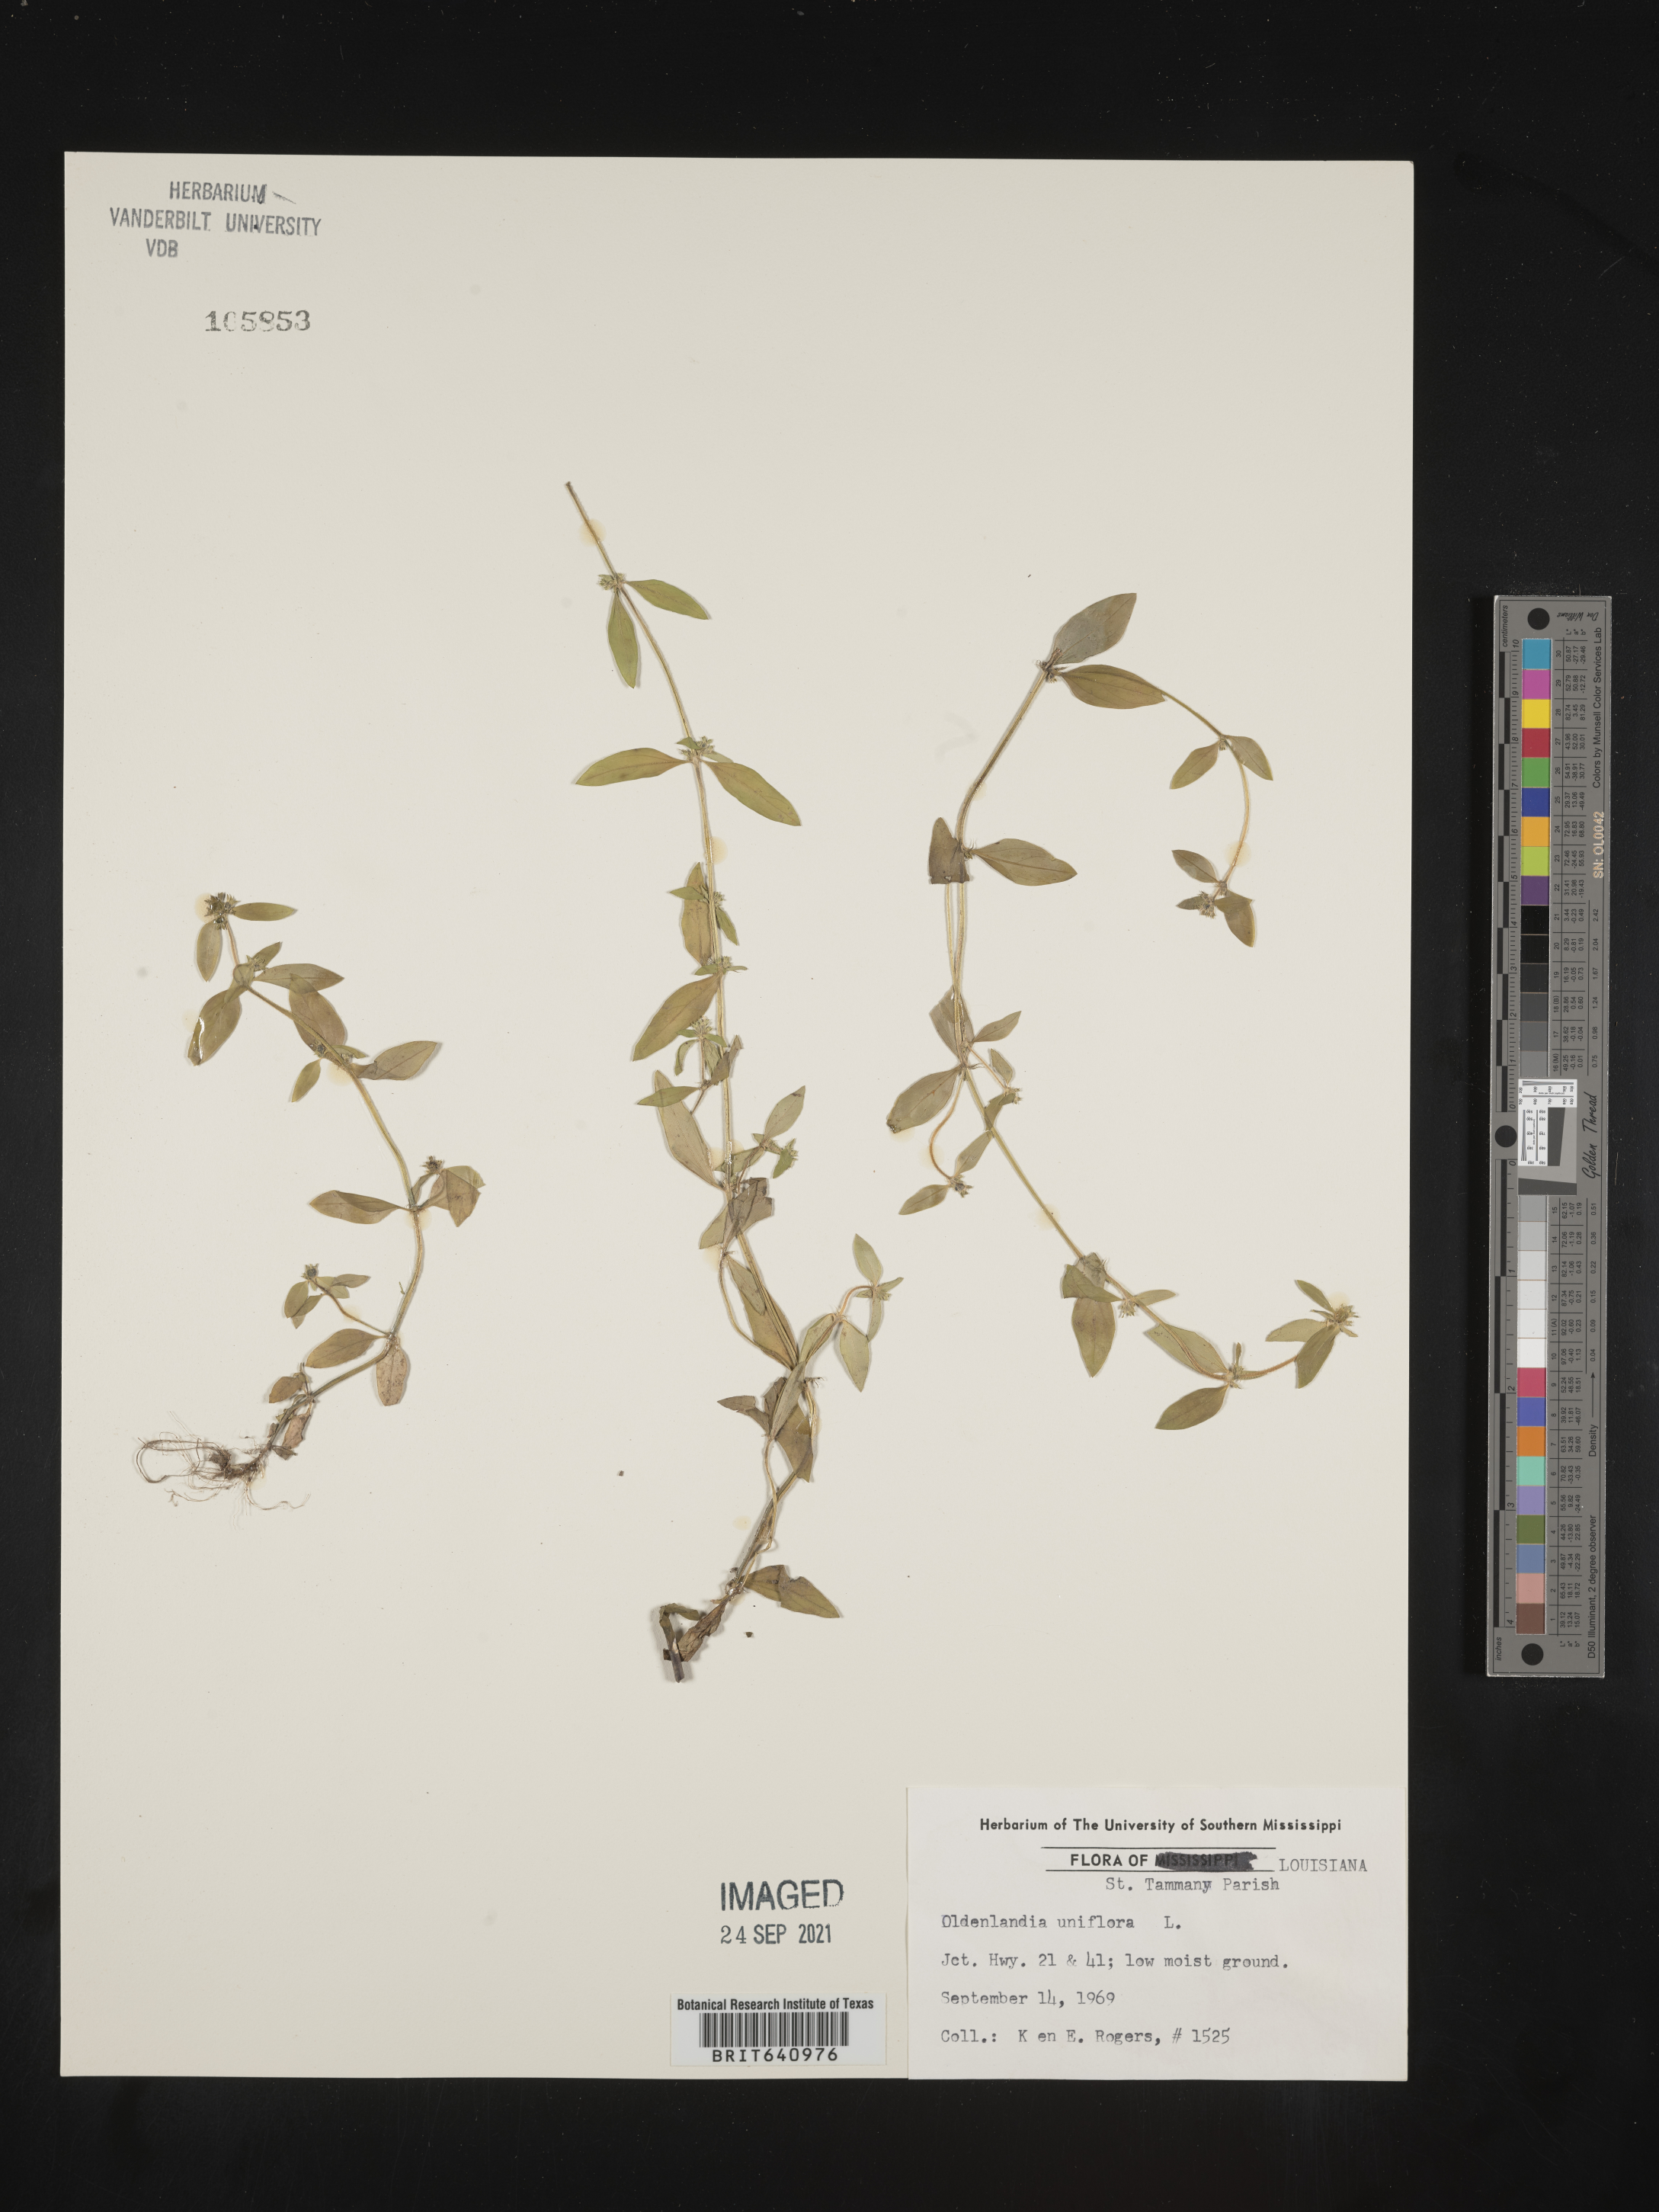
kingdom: Plantae
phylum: Tracheophyta
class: Magnoliopsida
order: Gentianales
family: Rubiaceae
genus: Edrastima
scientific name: Edrastima uniflora
